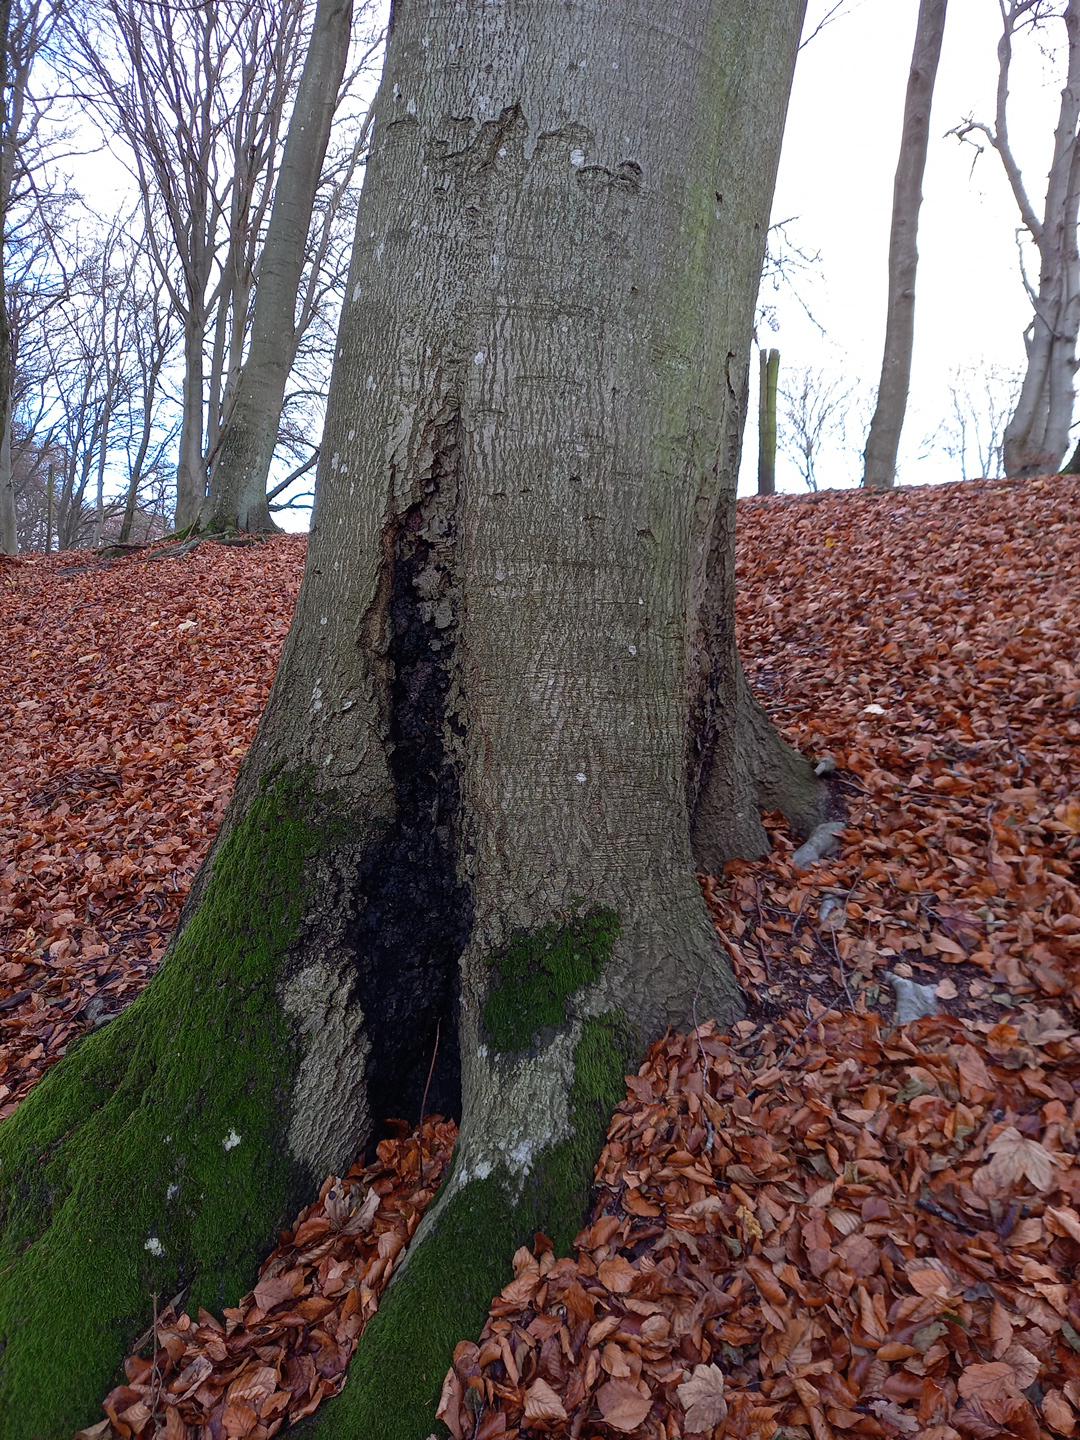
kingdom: Fungi
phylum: Ascomycota
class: Sordariomycetes
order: Xylariales
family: Xylariaceae
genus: Kretzschmaria
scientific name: Kretzschmaria deusta
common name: stor kulsvamp
